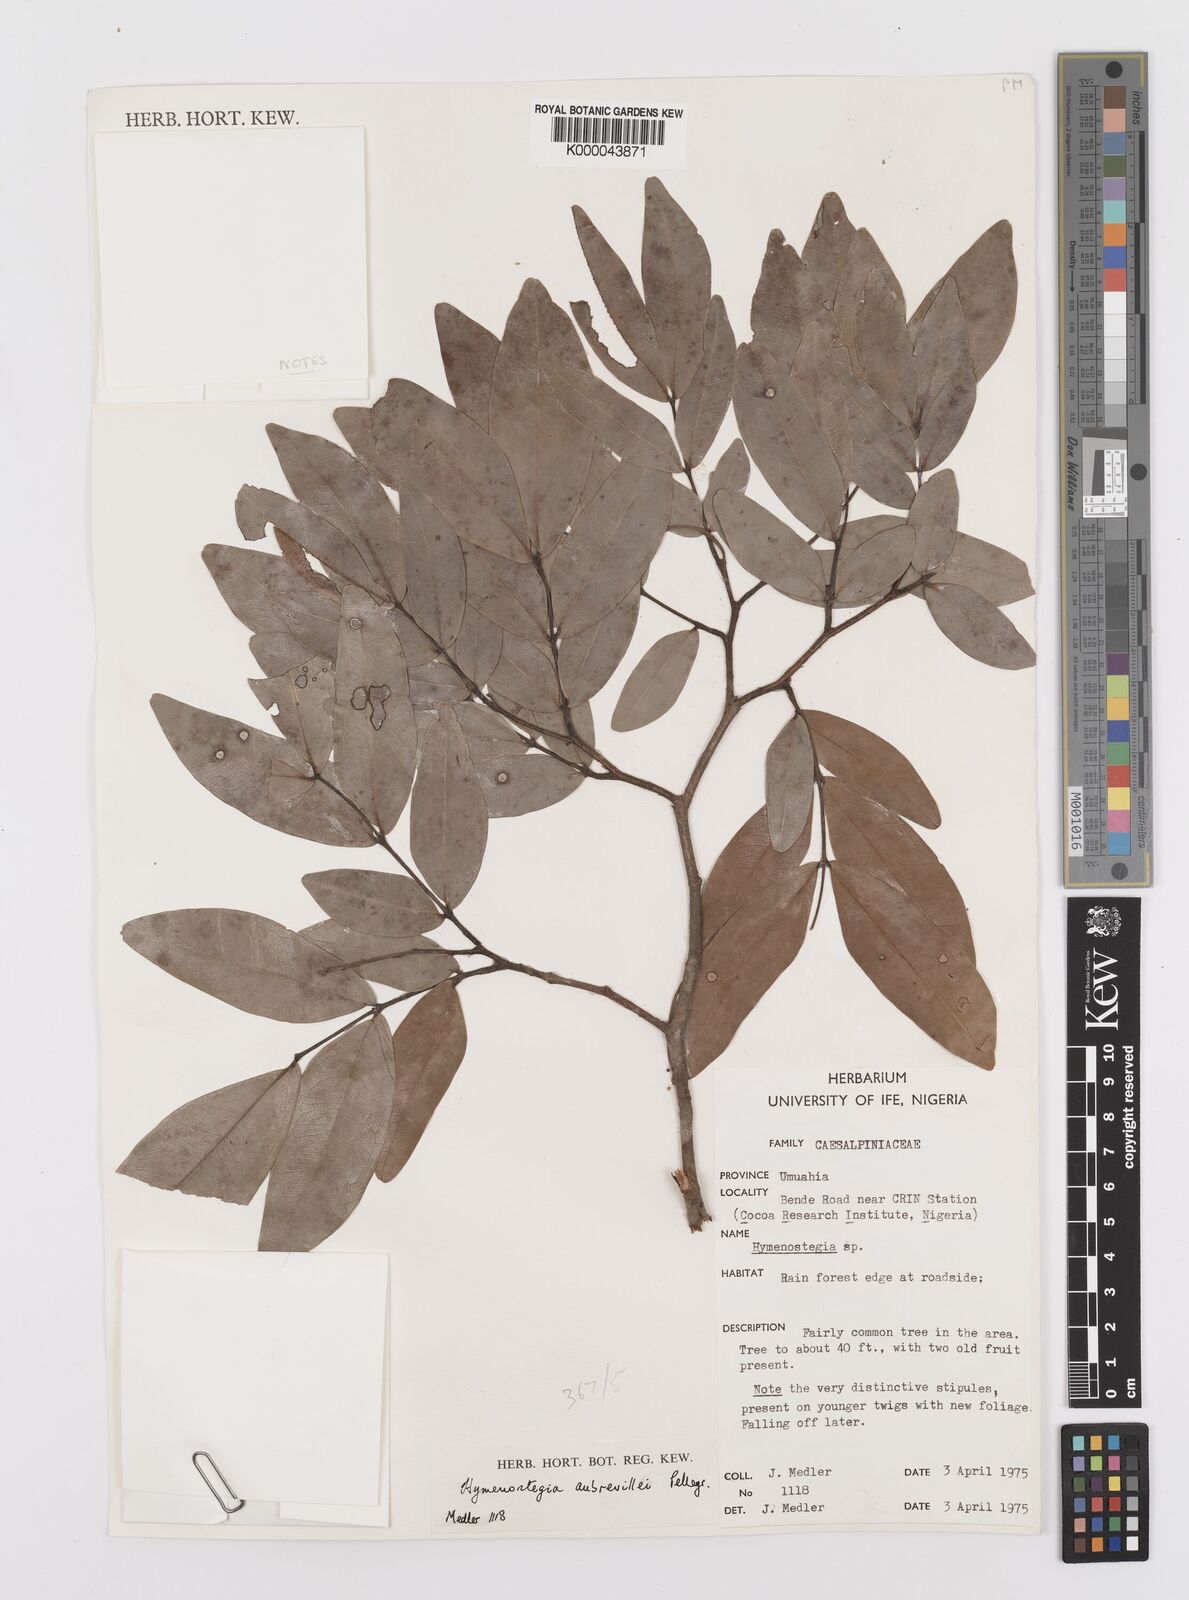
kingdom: Plantae
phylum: Tracheophyta
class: Magnoliopsida
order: Fabales
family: Fabaceae
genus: Hymenostegia
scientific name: Hymenostegia aubrevillei
